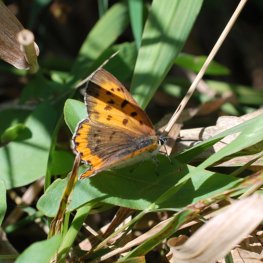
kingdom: Animalia
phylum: Arthropoda
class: Insecta
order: Lepidoptera
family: Sesiidae
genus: Sesia
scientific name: Sesia Lycaena hyllus
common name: Bronze Copper
